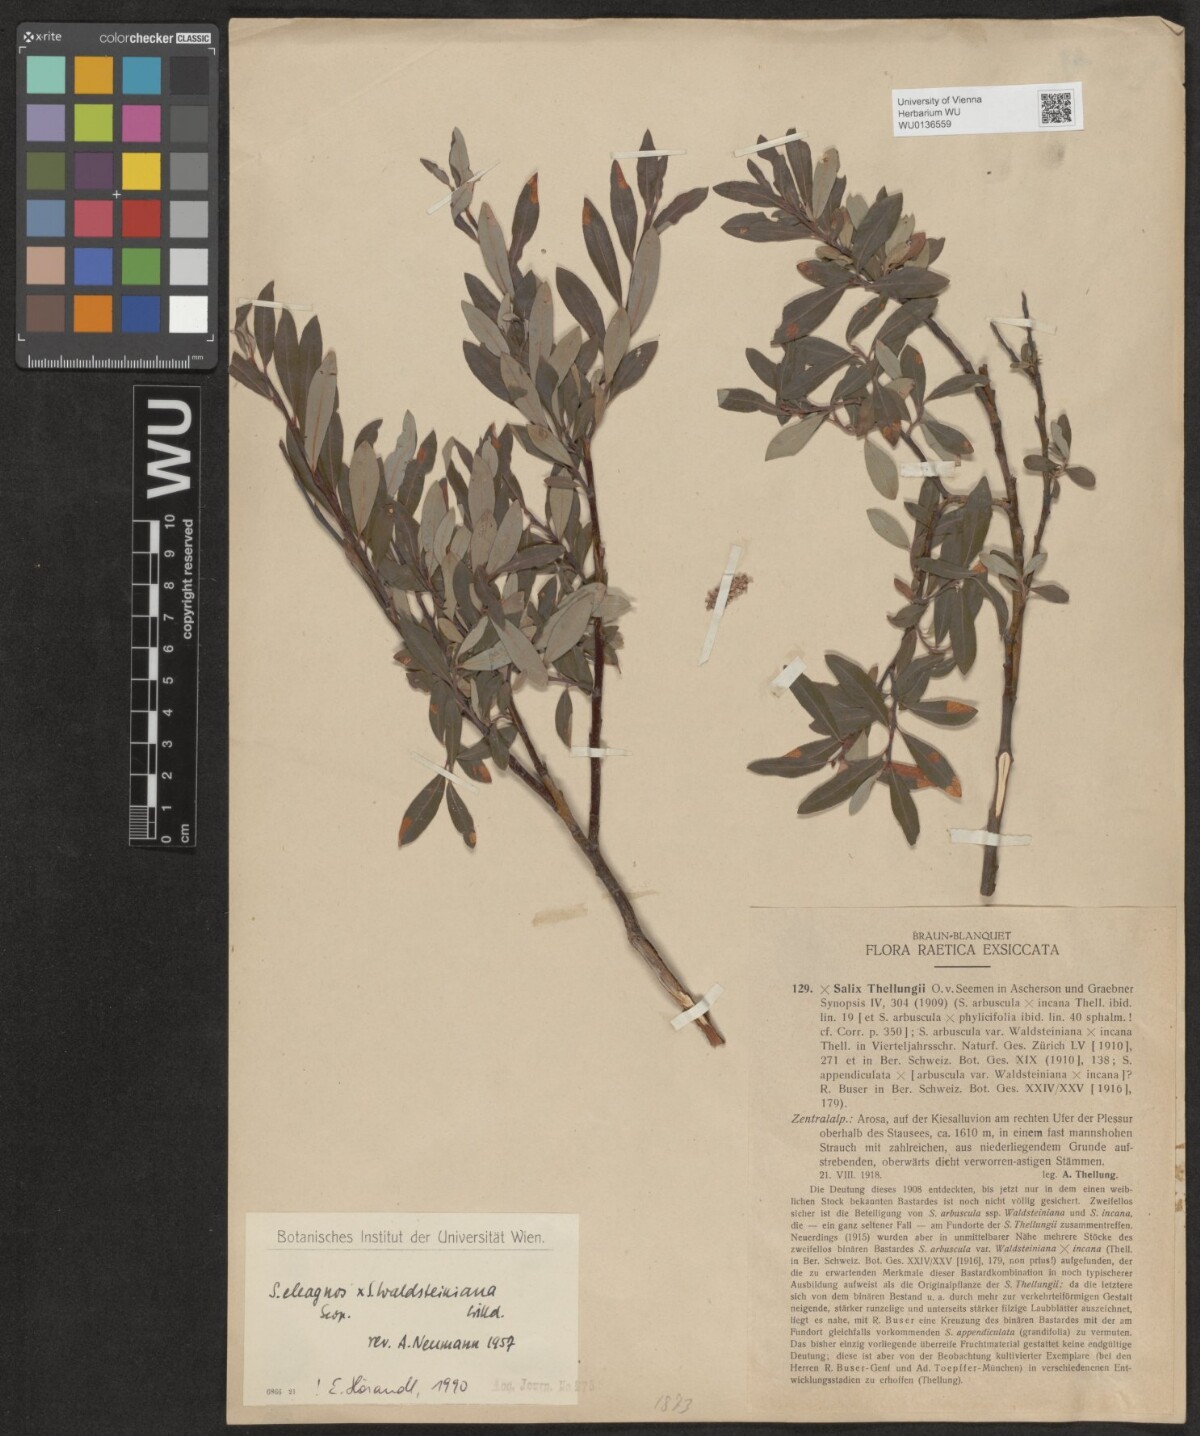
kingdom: Plantae
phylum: Tracheophyta
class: Magnoliopsida
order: Malpighiales
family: Salicaceae
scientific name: Salicaceae
